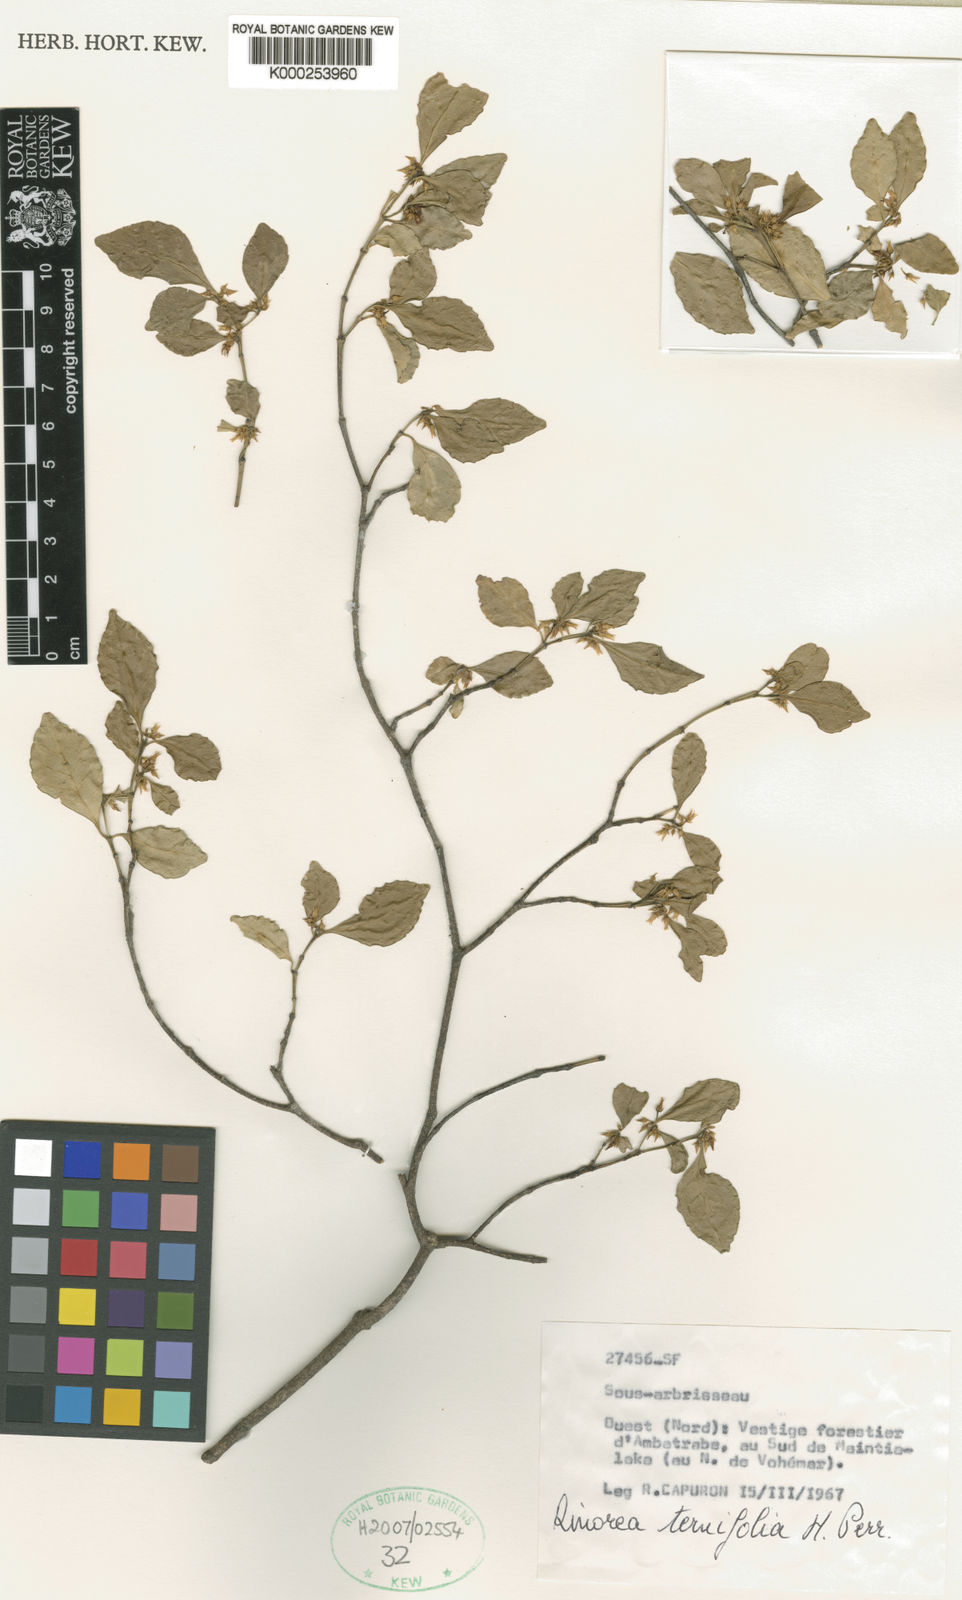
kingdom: Plantae
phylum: Tracheophyta
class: Magnoliopsida
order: Malpighiales
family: Violaceae
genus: Rinorea
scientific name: Rinorea ternifolia
